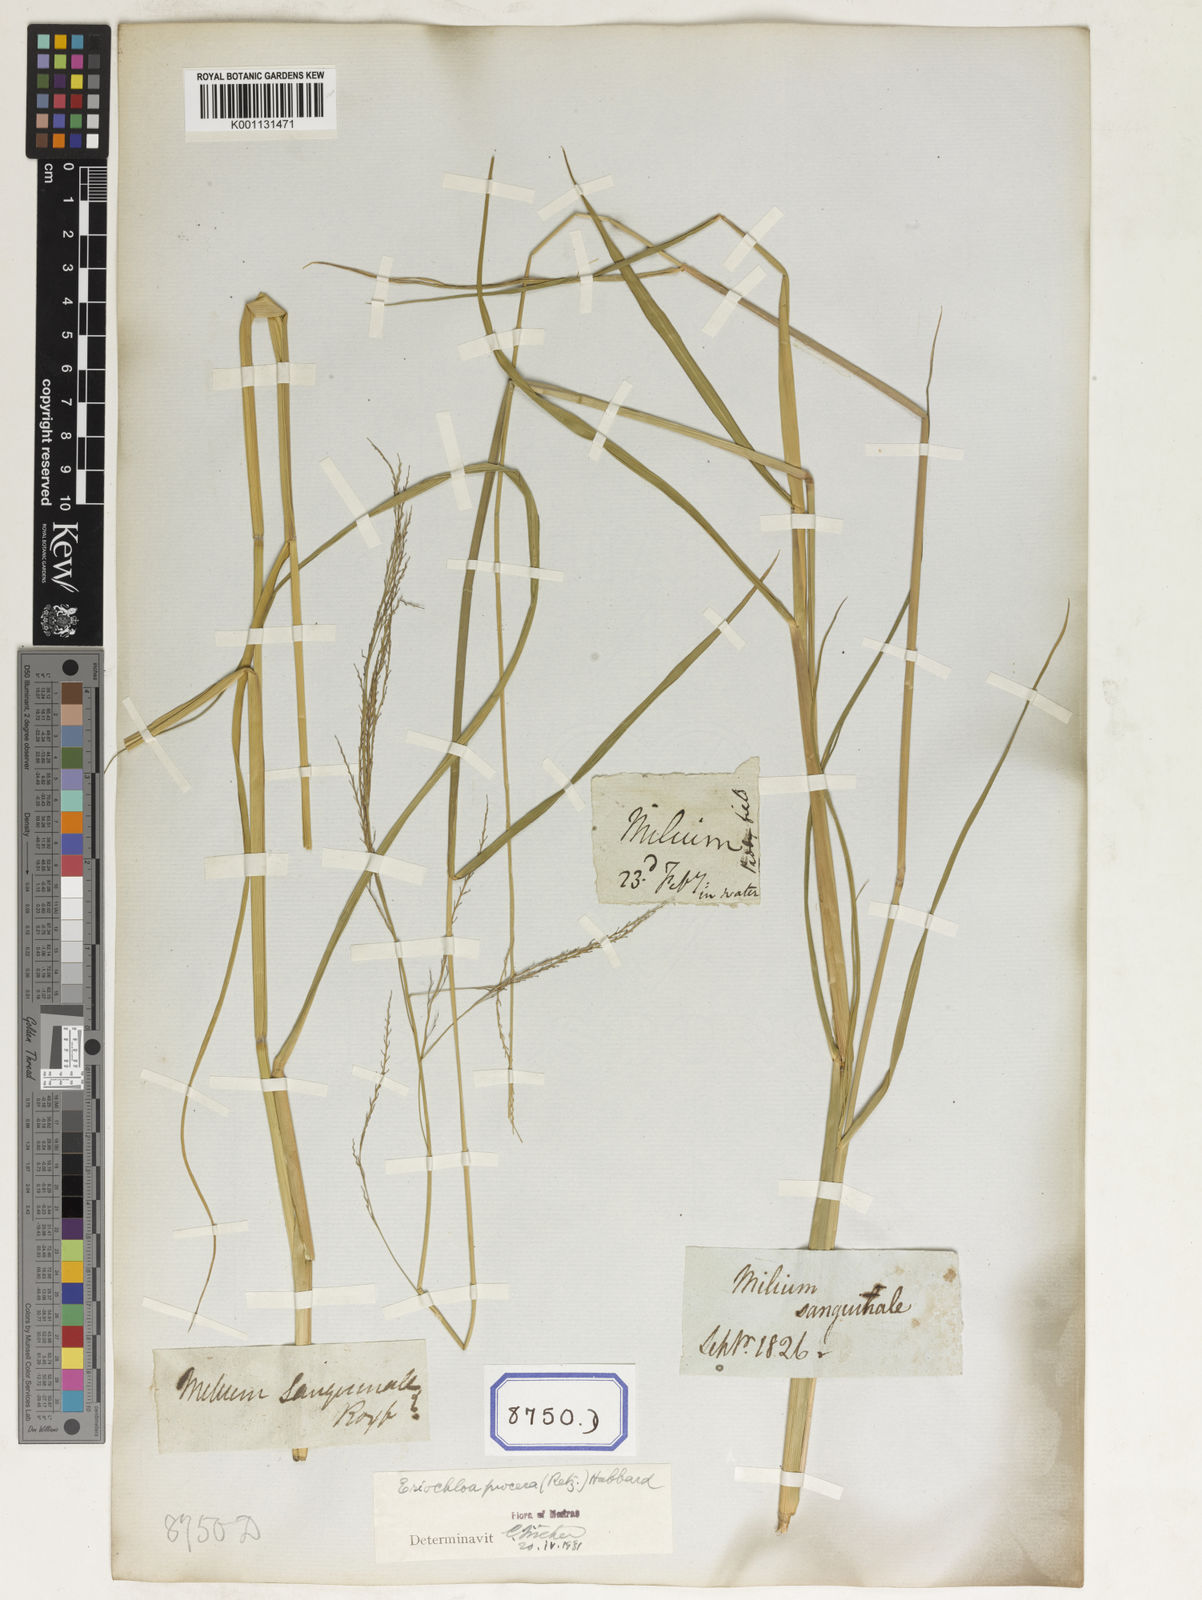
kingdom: Plantae
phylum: Tracheophyta
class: Liliopsida
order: Poales
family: Poaceae
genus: Eriochloa
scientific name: Eriochloa procera
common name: Spring grass
